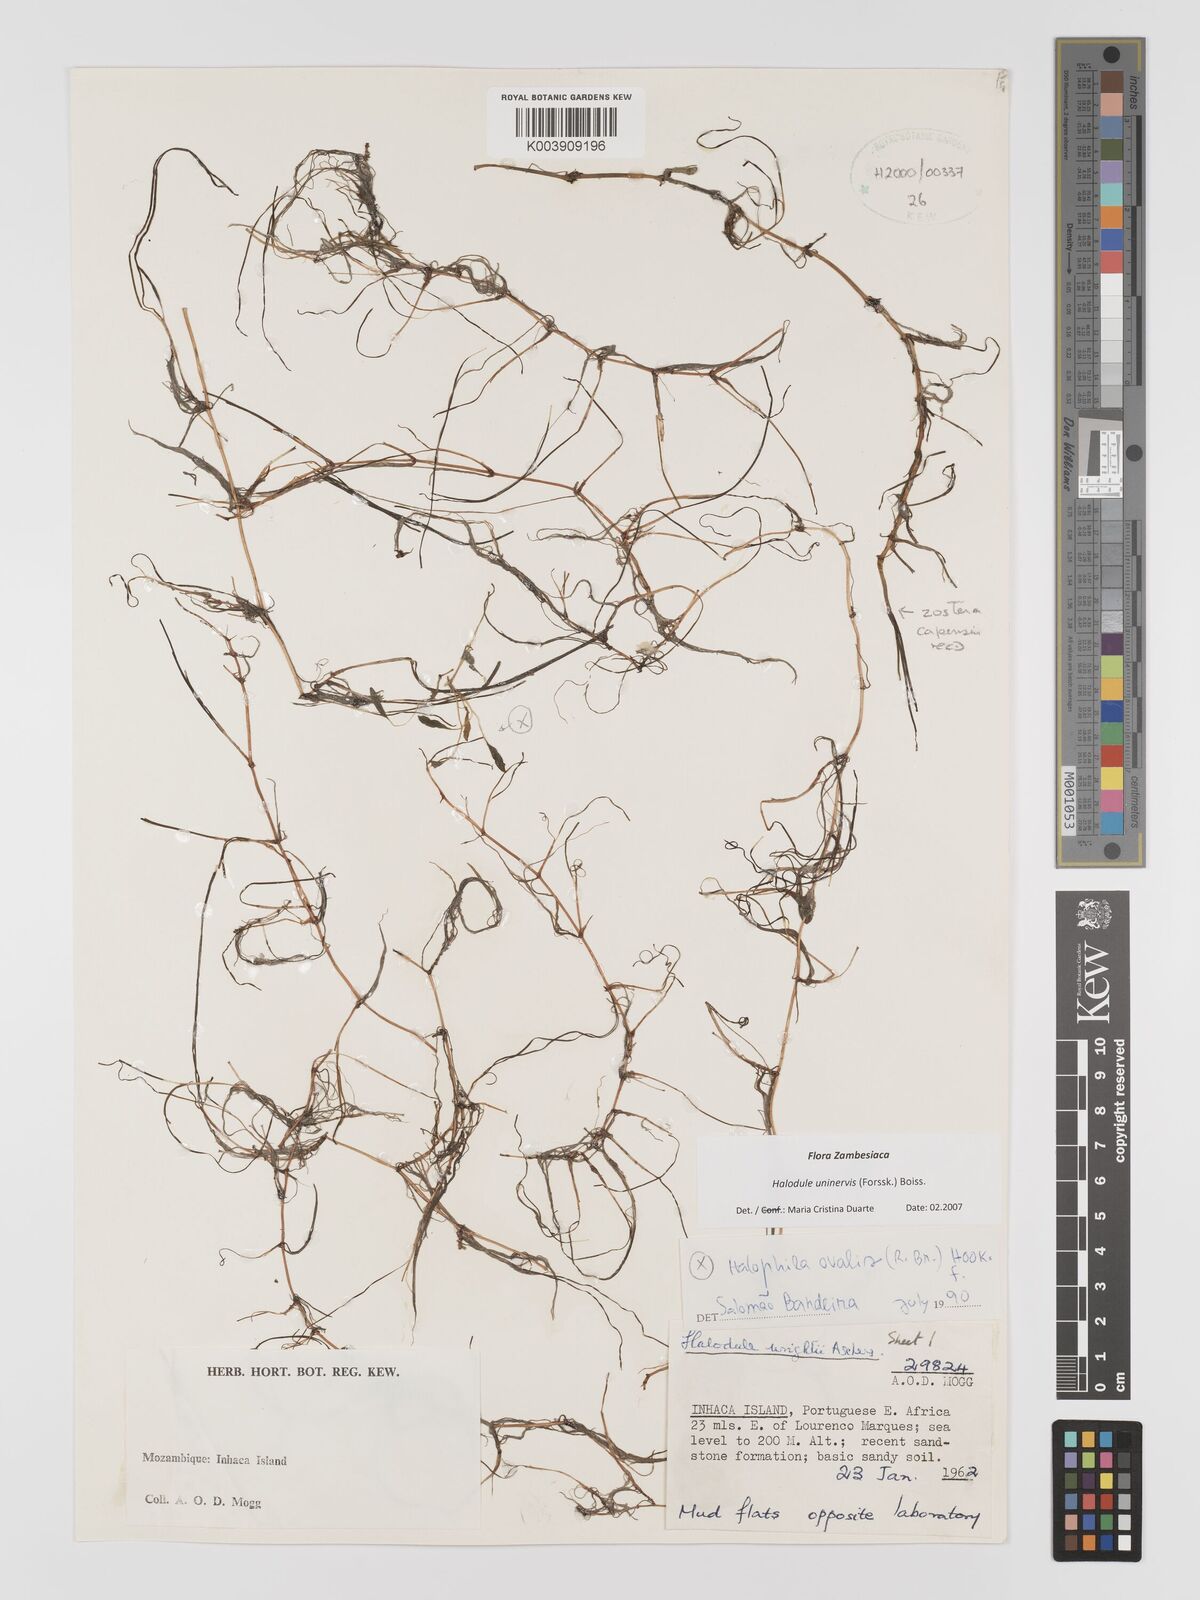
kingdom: Plantae
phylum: Tracheophyta
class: Liliopsida
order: Alismatales
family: Cymodoceaceae
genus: Halodule
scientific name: Halodule uninervis
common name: Narrowleaf seagrass
